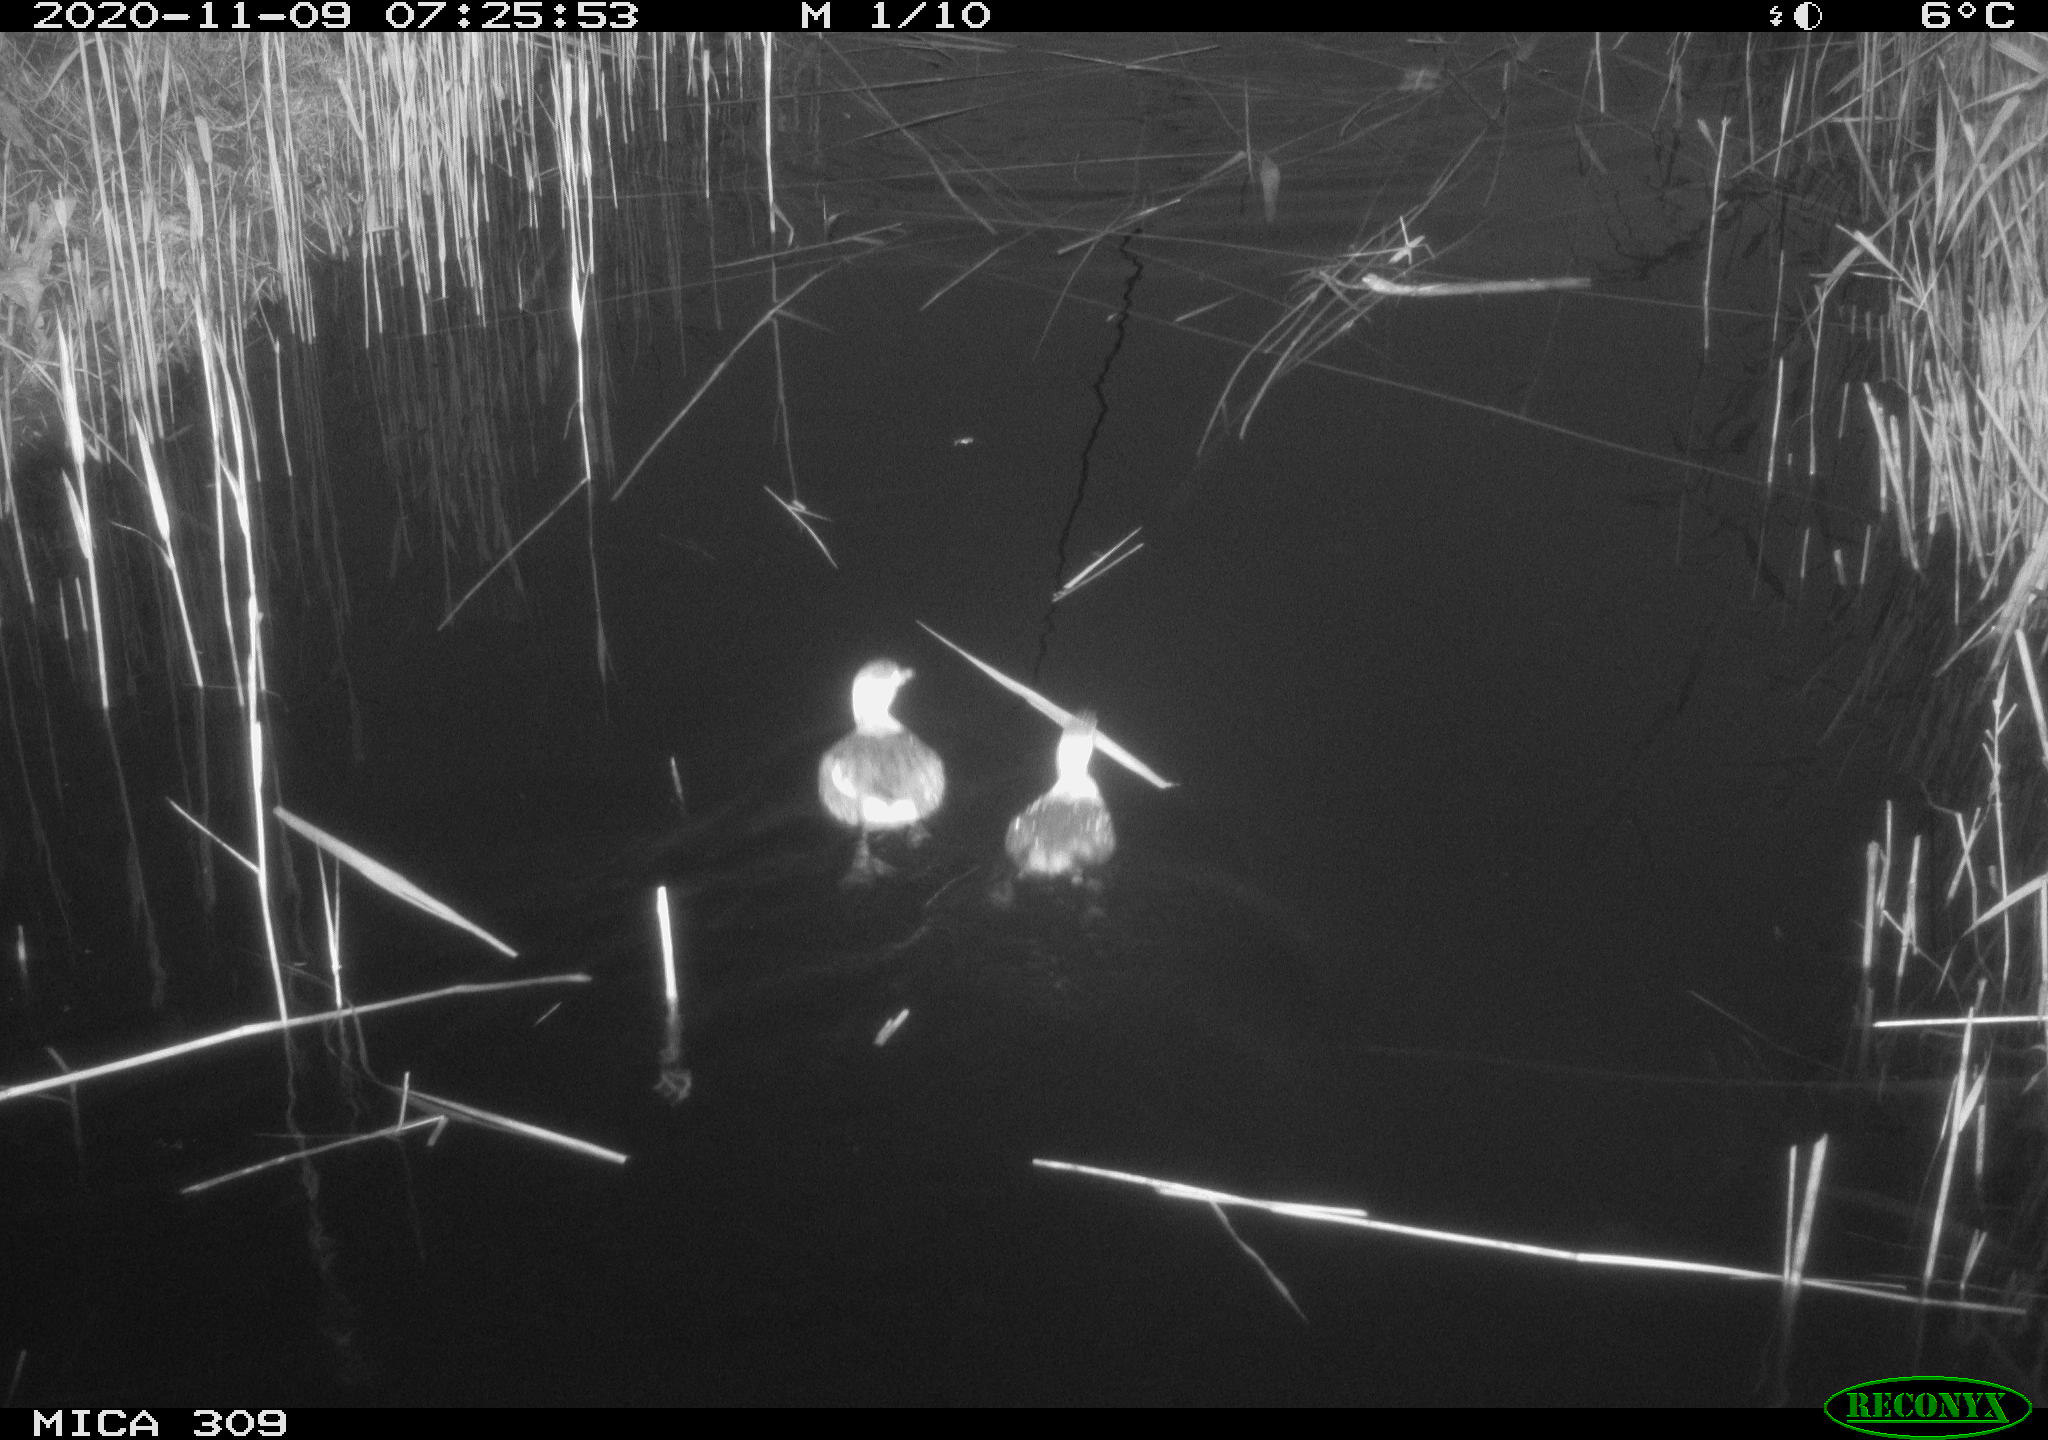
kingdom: Animalia
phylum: Chordata
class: Aves
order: Podicipediformes
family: Podicipedidae
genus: Tachybaptus
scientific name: Tachybaptus ruficollis
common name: Little grebe
